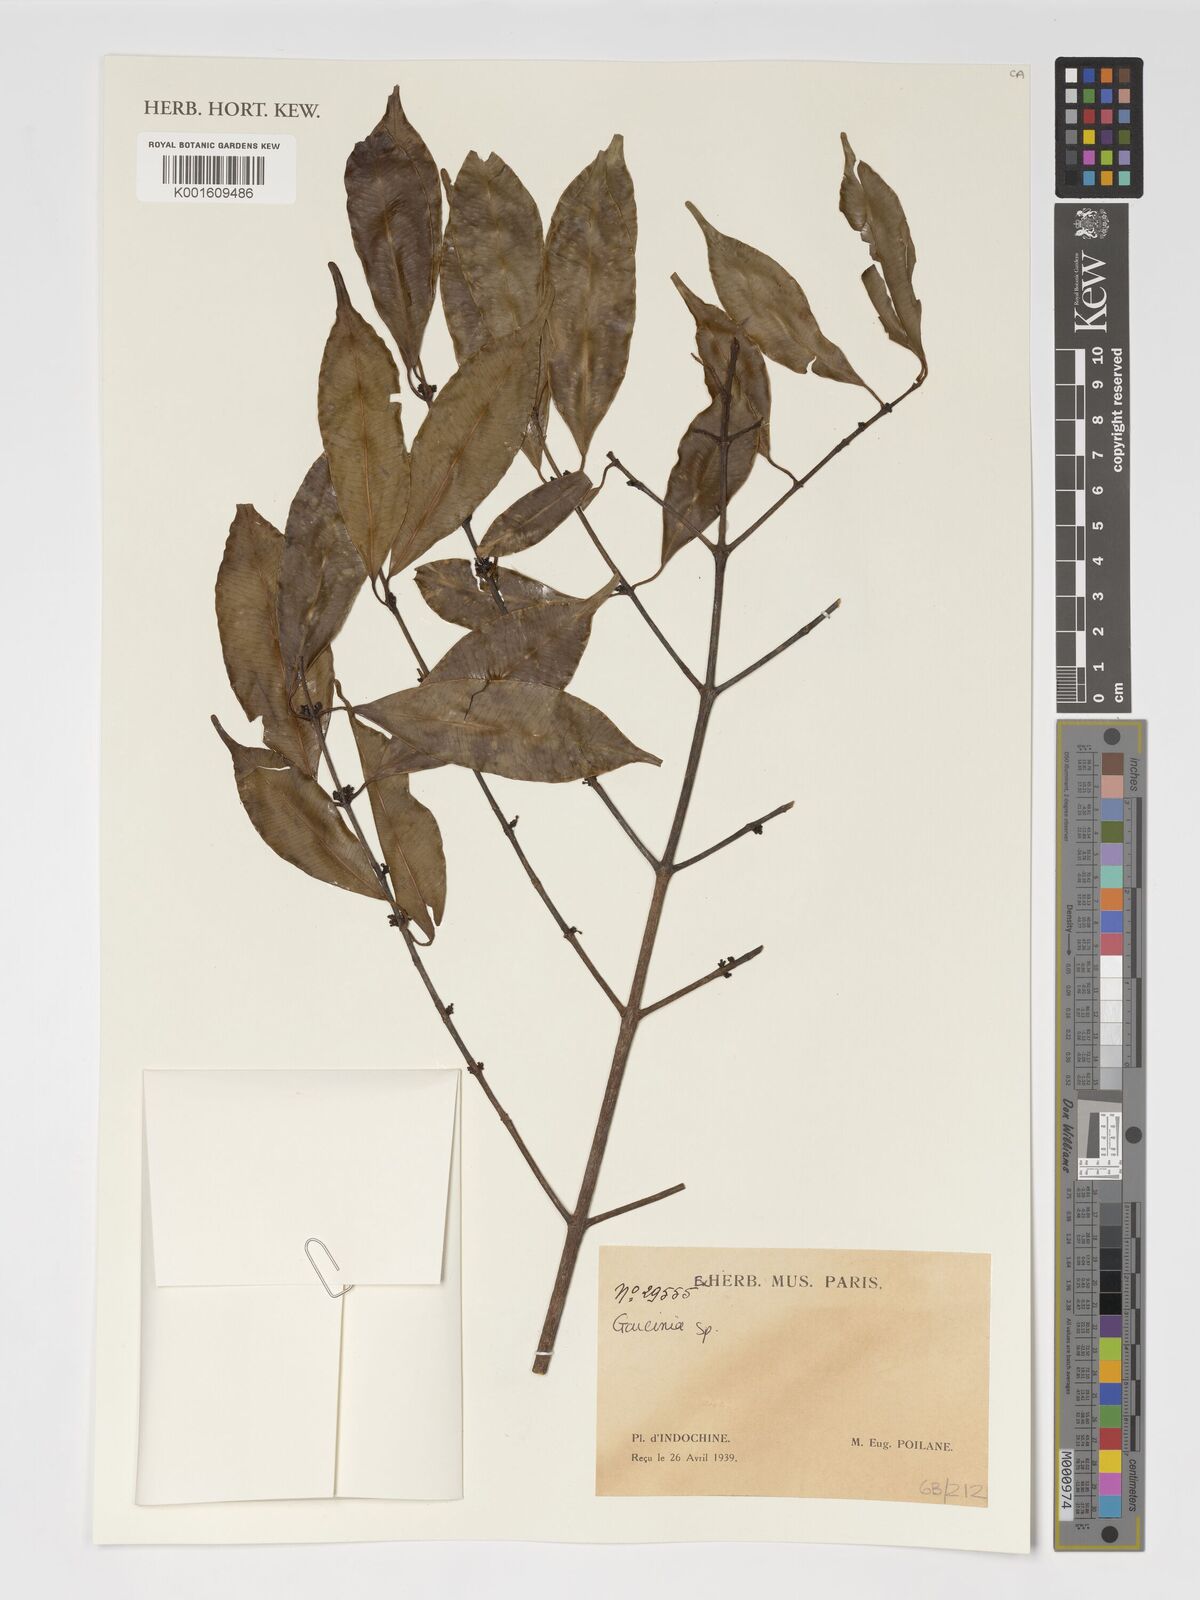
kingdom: Plantae
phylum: Tracheophyta
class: Magnoliopsida
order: Malpighiales
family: Clusiaceae
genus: Garcinia
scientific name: Garcinia
